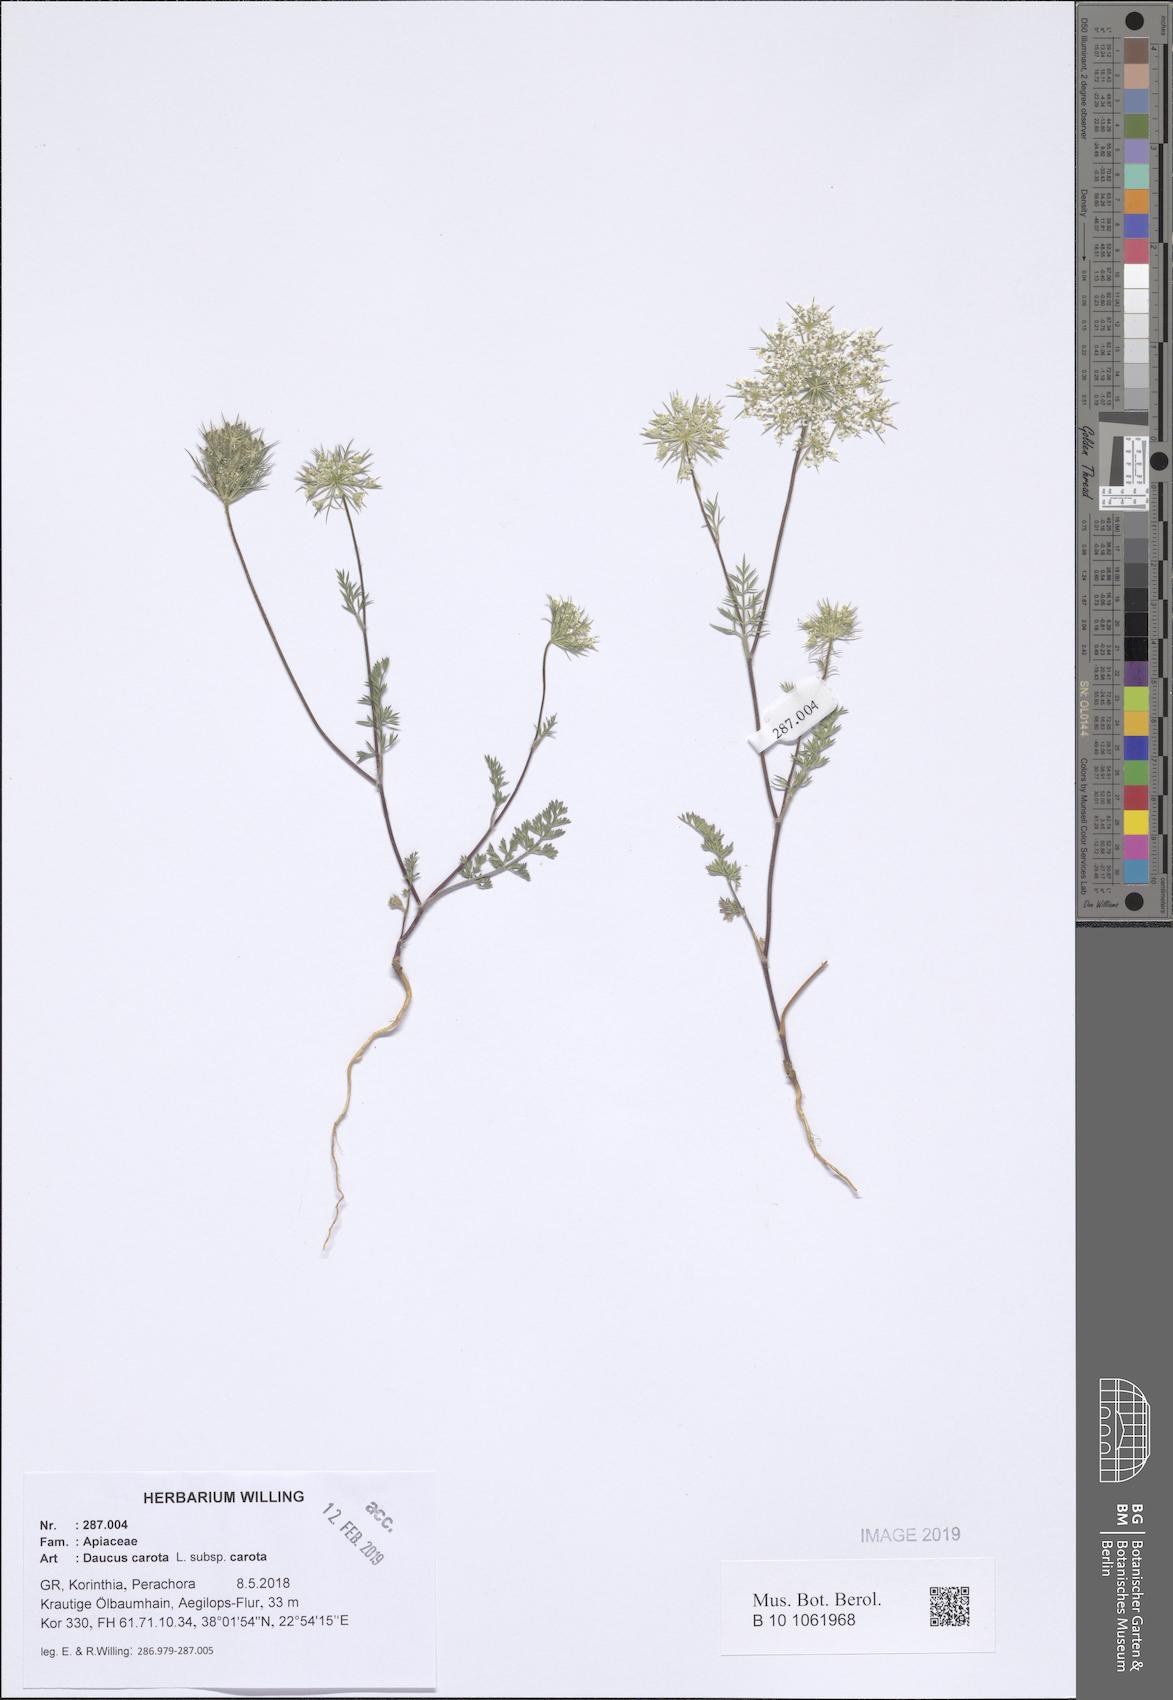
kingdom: Plantae
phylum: Tracheophyta
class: Magnoliopsida
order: Apiales
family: Apiaceae
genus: Daucus
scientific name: Daucus carota
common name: Wild carrot
